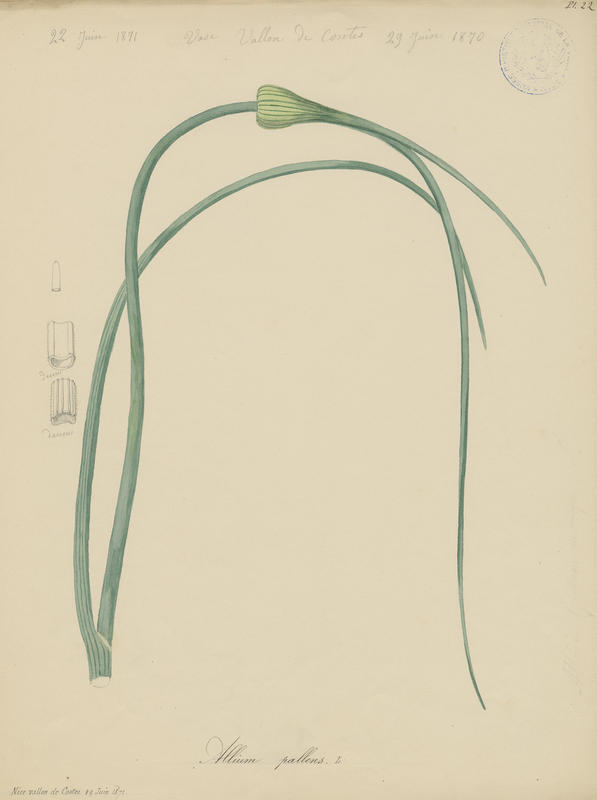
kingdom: Plantae
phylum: Tracheophyta
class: Liliopsida
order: Asparagales
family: Amaryllidaceae
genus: Allium
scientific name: Allium pallens
